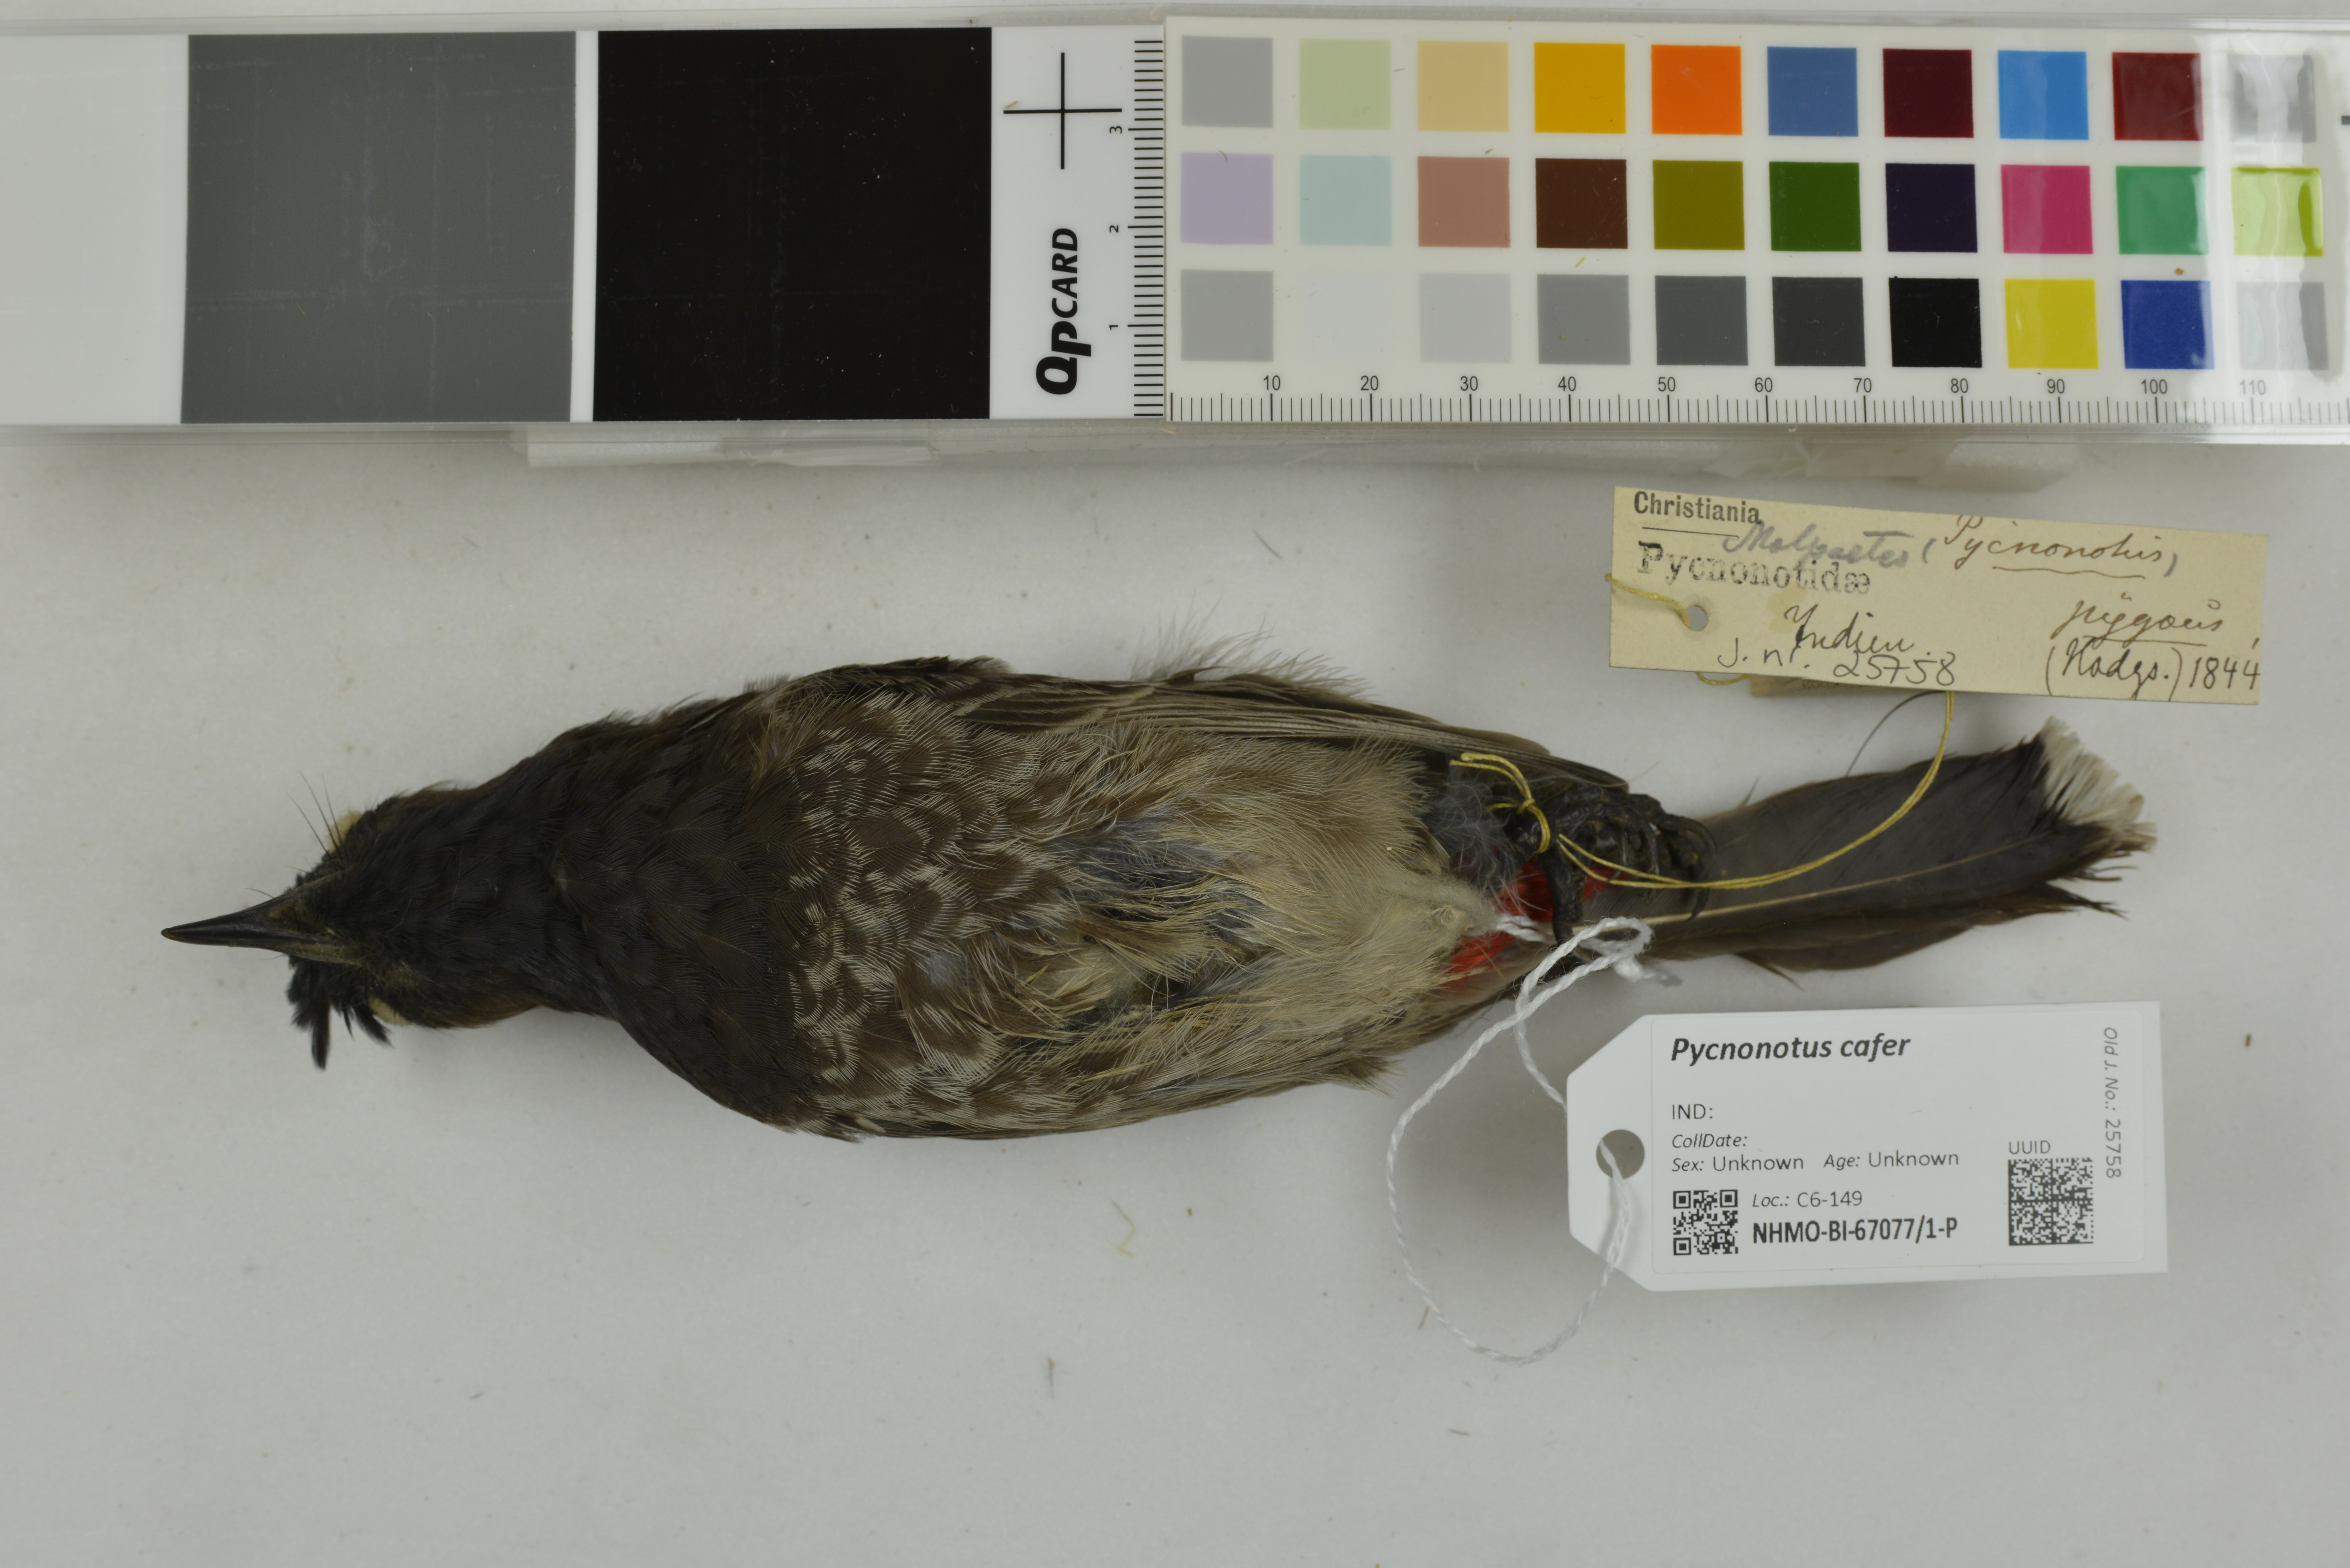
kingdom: Animalia
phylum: Chordata
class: Aves
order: Passeriformes
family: Pycnonotidae
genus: Pycnonotus
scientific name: Pycnonotus cafer
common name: Red-vented bulbul
